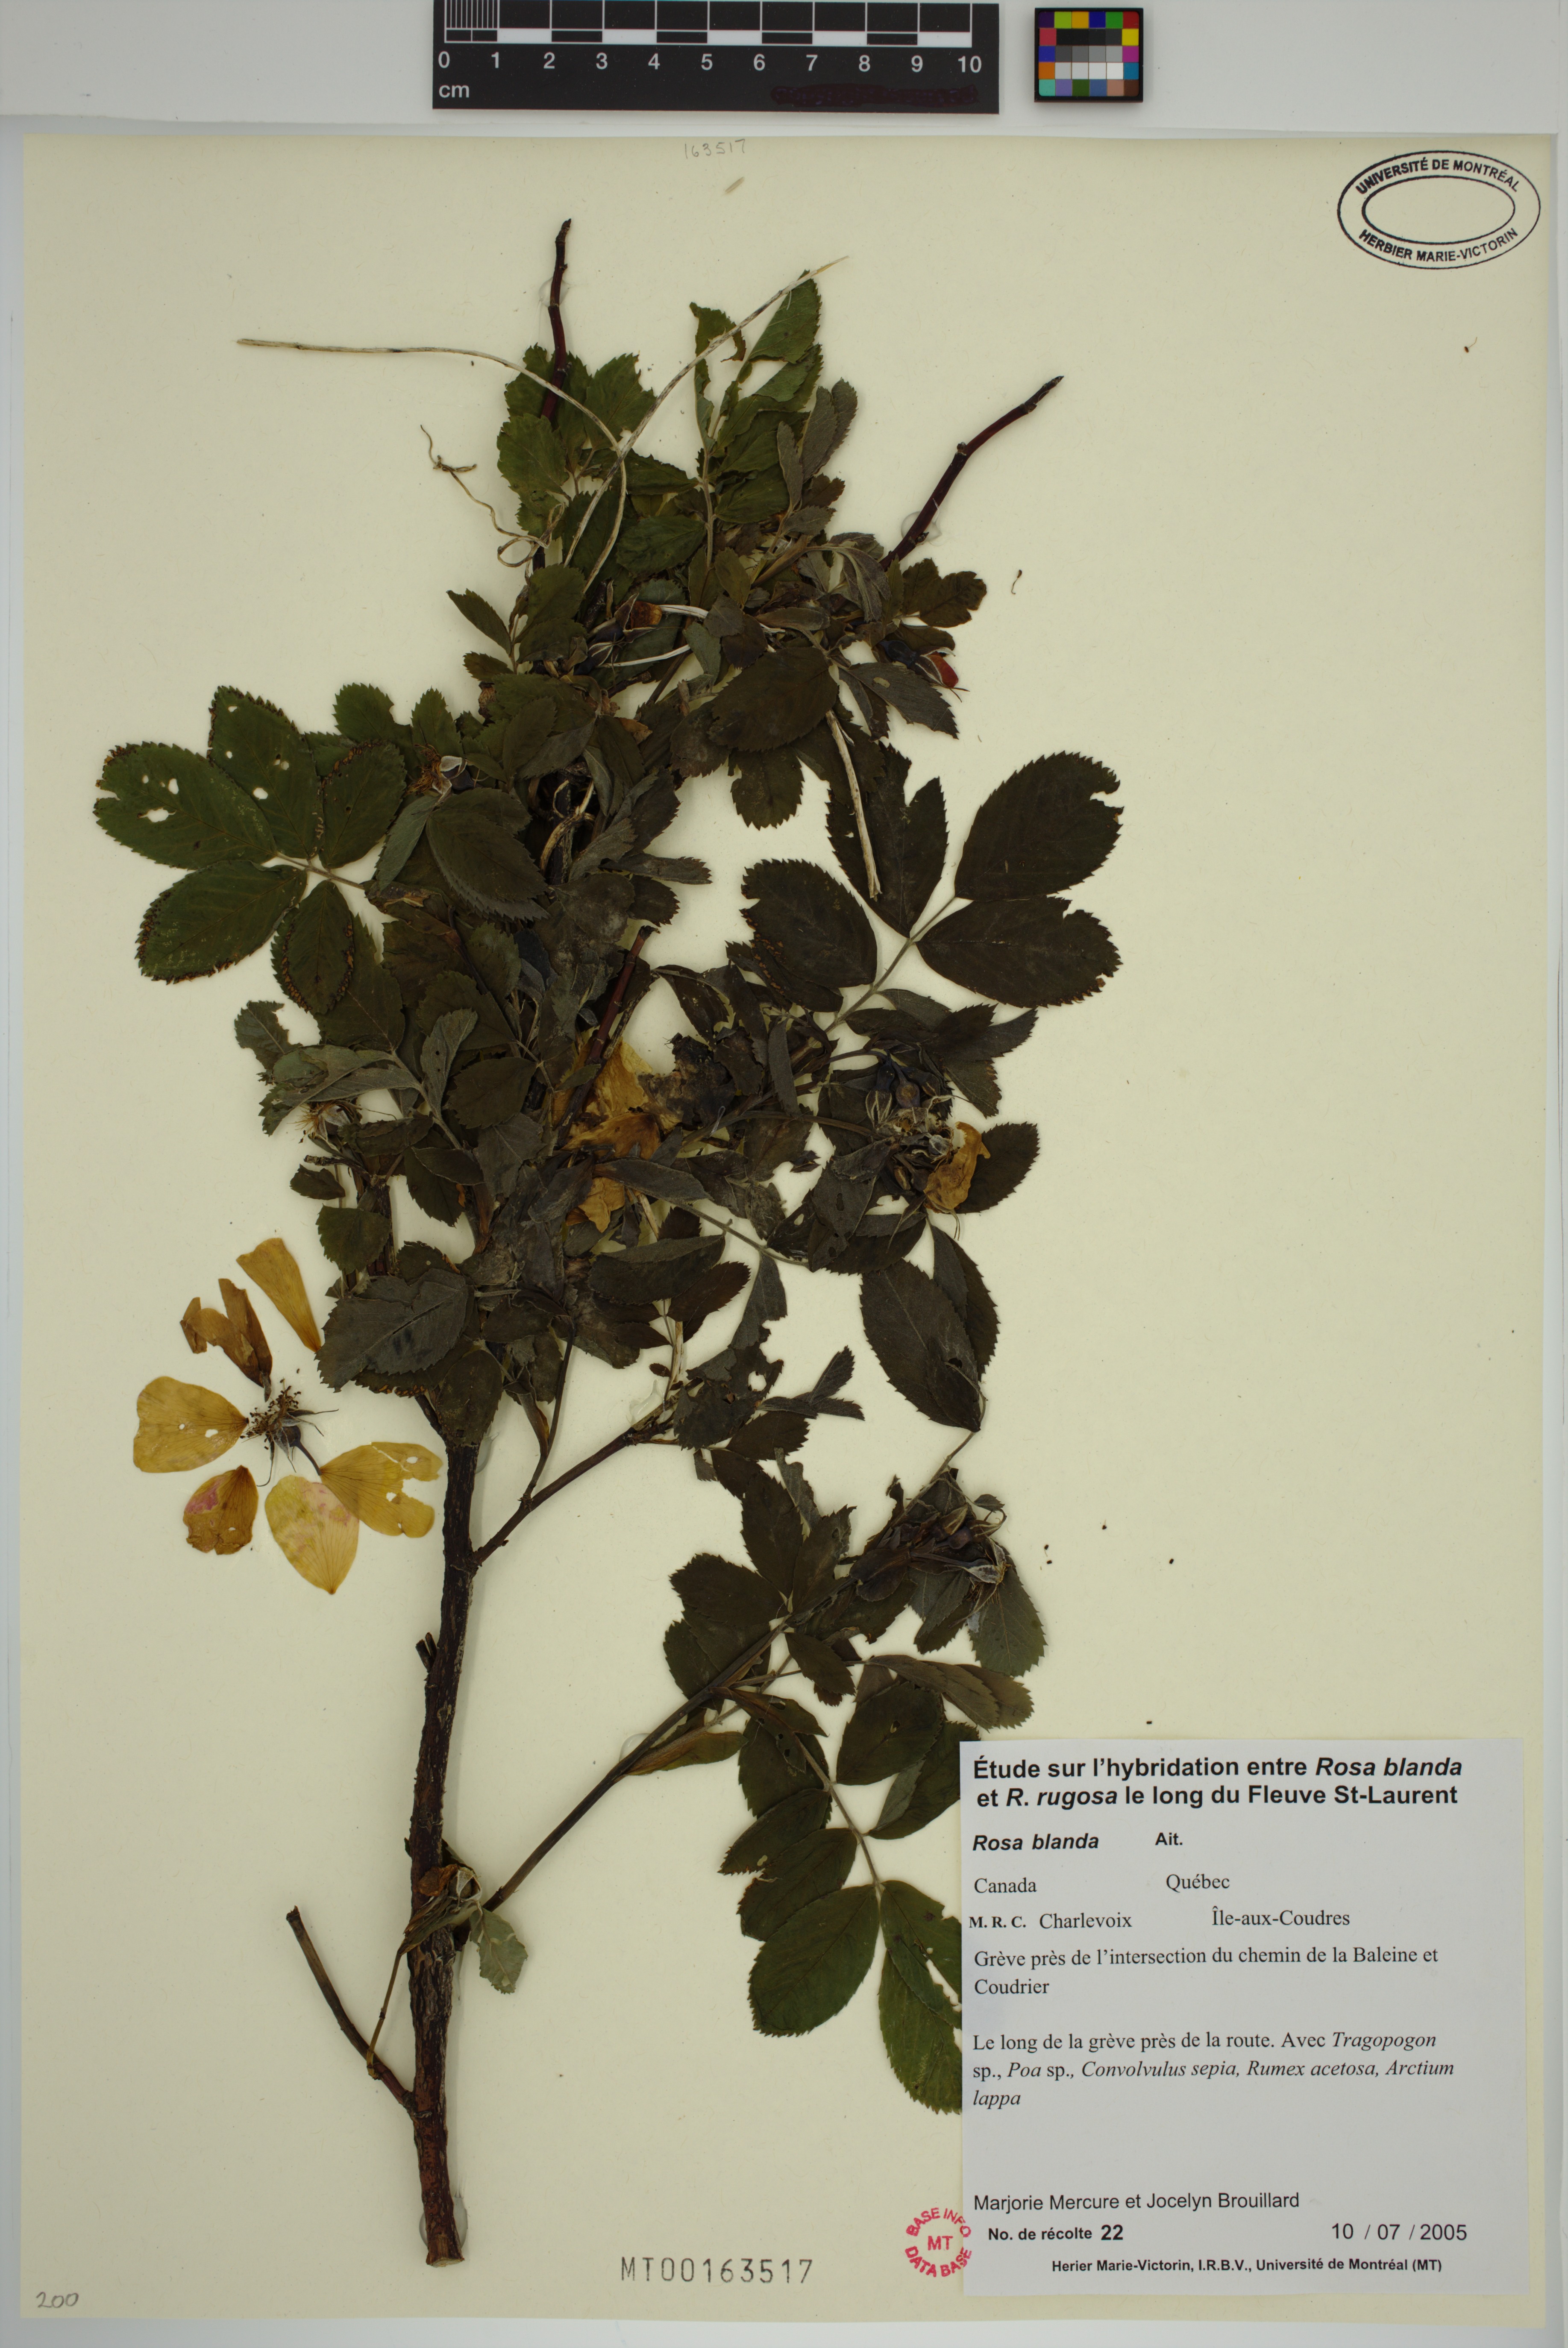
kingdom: Plantae
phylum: Tracheophyta
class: Magnoliopsida
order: Rosales
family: Rosaceae
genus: Rosa
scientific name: Rosa blanda
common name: Smooth rose
